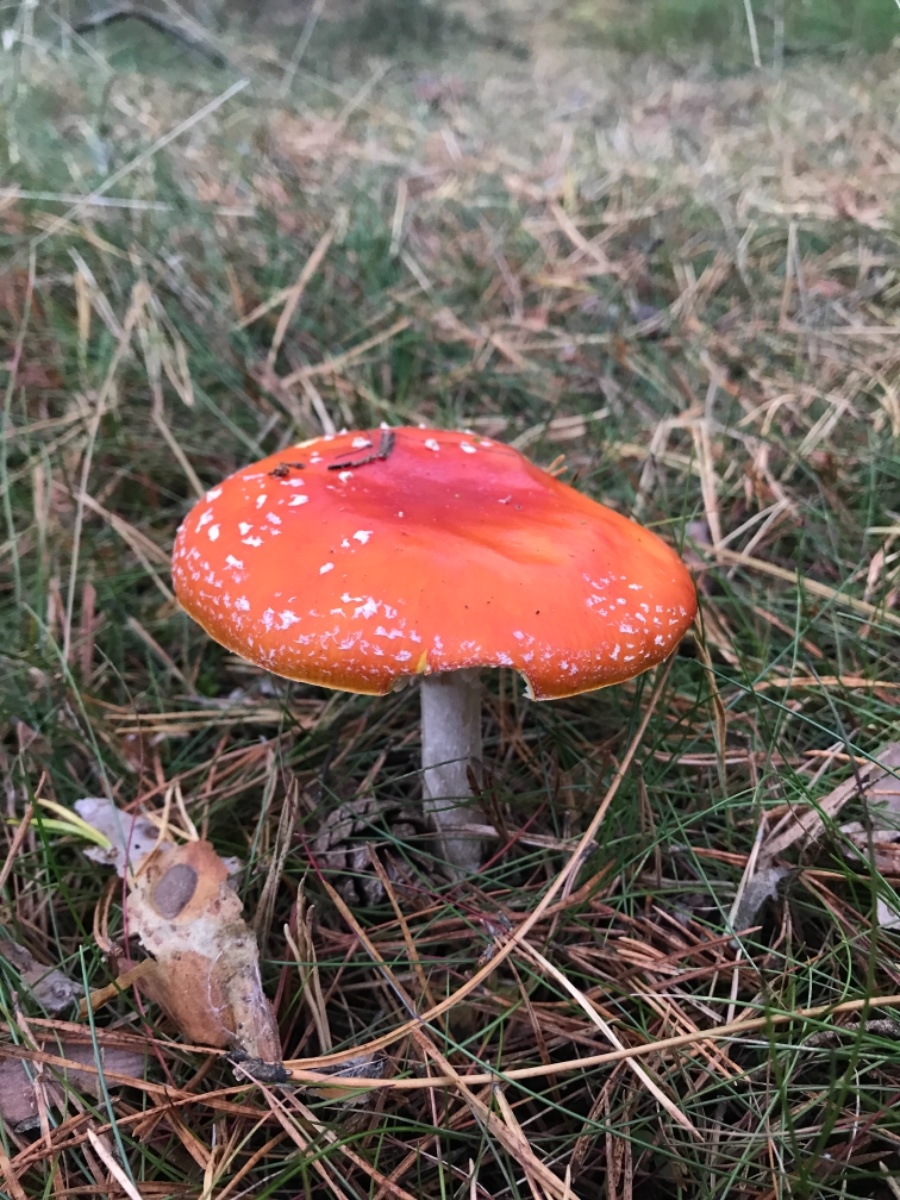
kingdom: Fungi
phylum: Basidiomycota
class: Agaricomycetes
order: Agaricales
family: Amanitaceae
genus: Amanita
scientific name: Amanita muscaria
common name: rød fluesvamp
